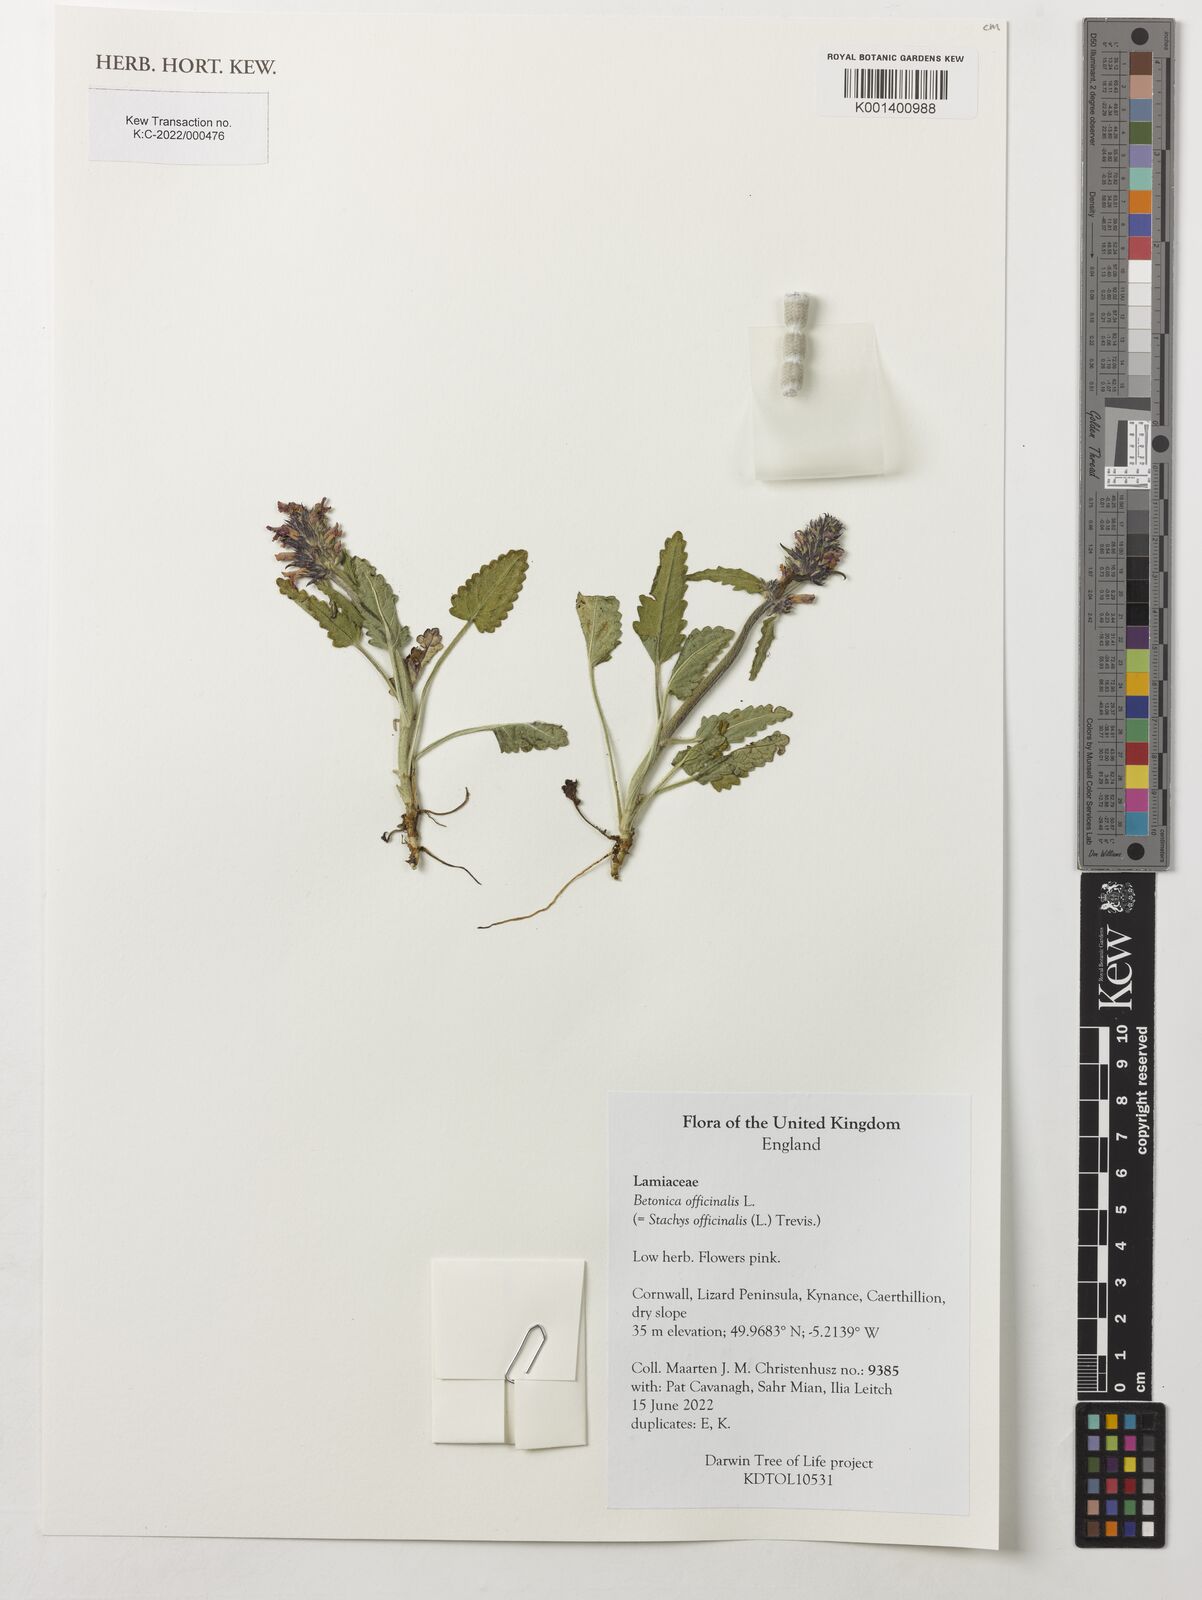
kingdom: Plantae
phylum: Tracheophyta
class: Magnoliopsida
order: Lamiales
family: Lamiaceae
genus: Betonica
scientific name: Betonica officinalis
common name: Bishop's-wort
